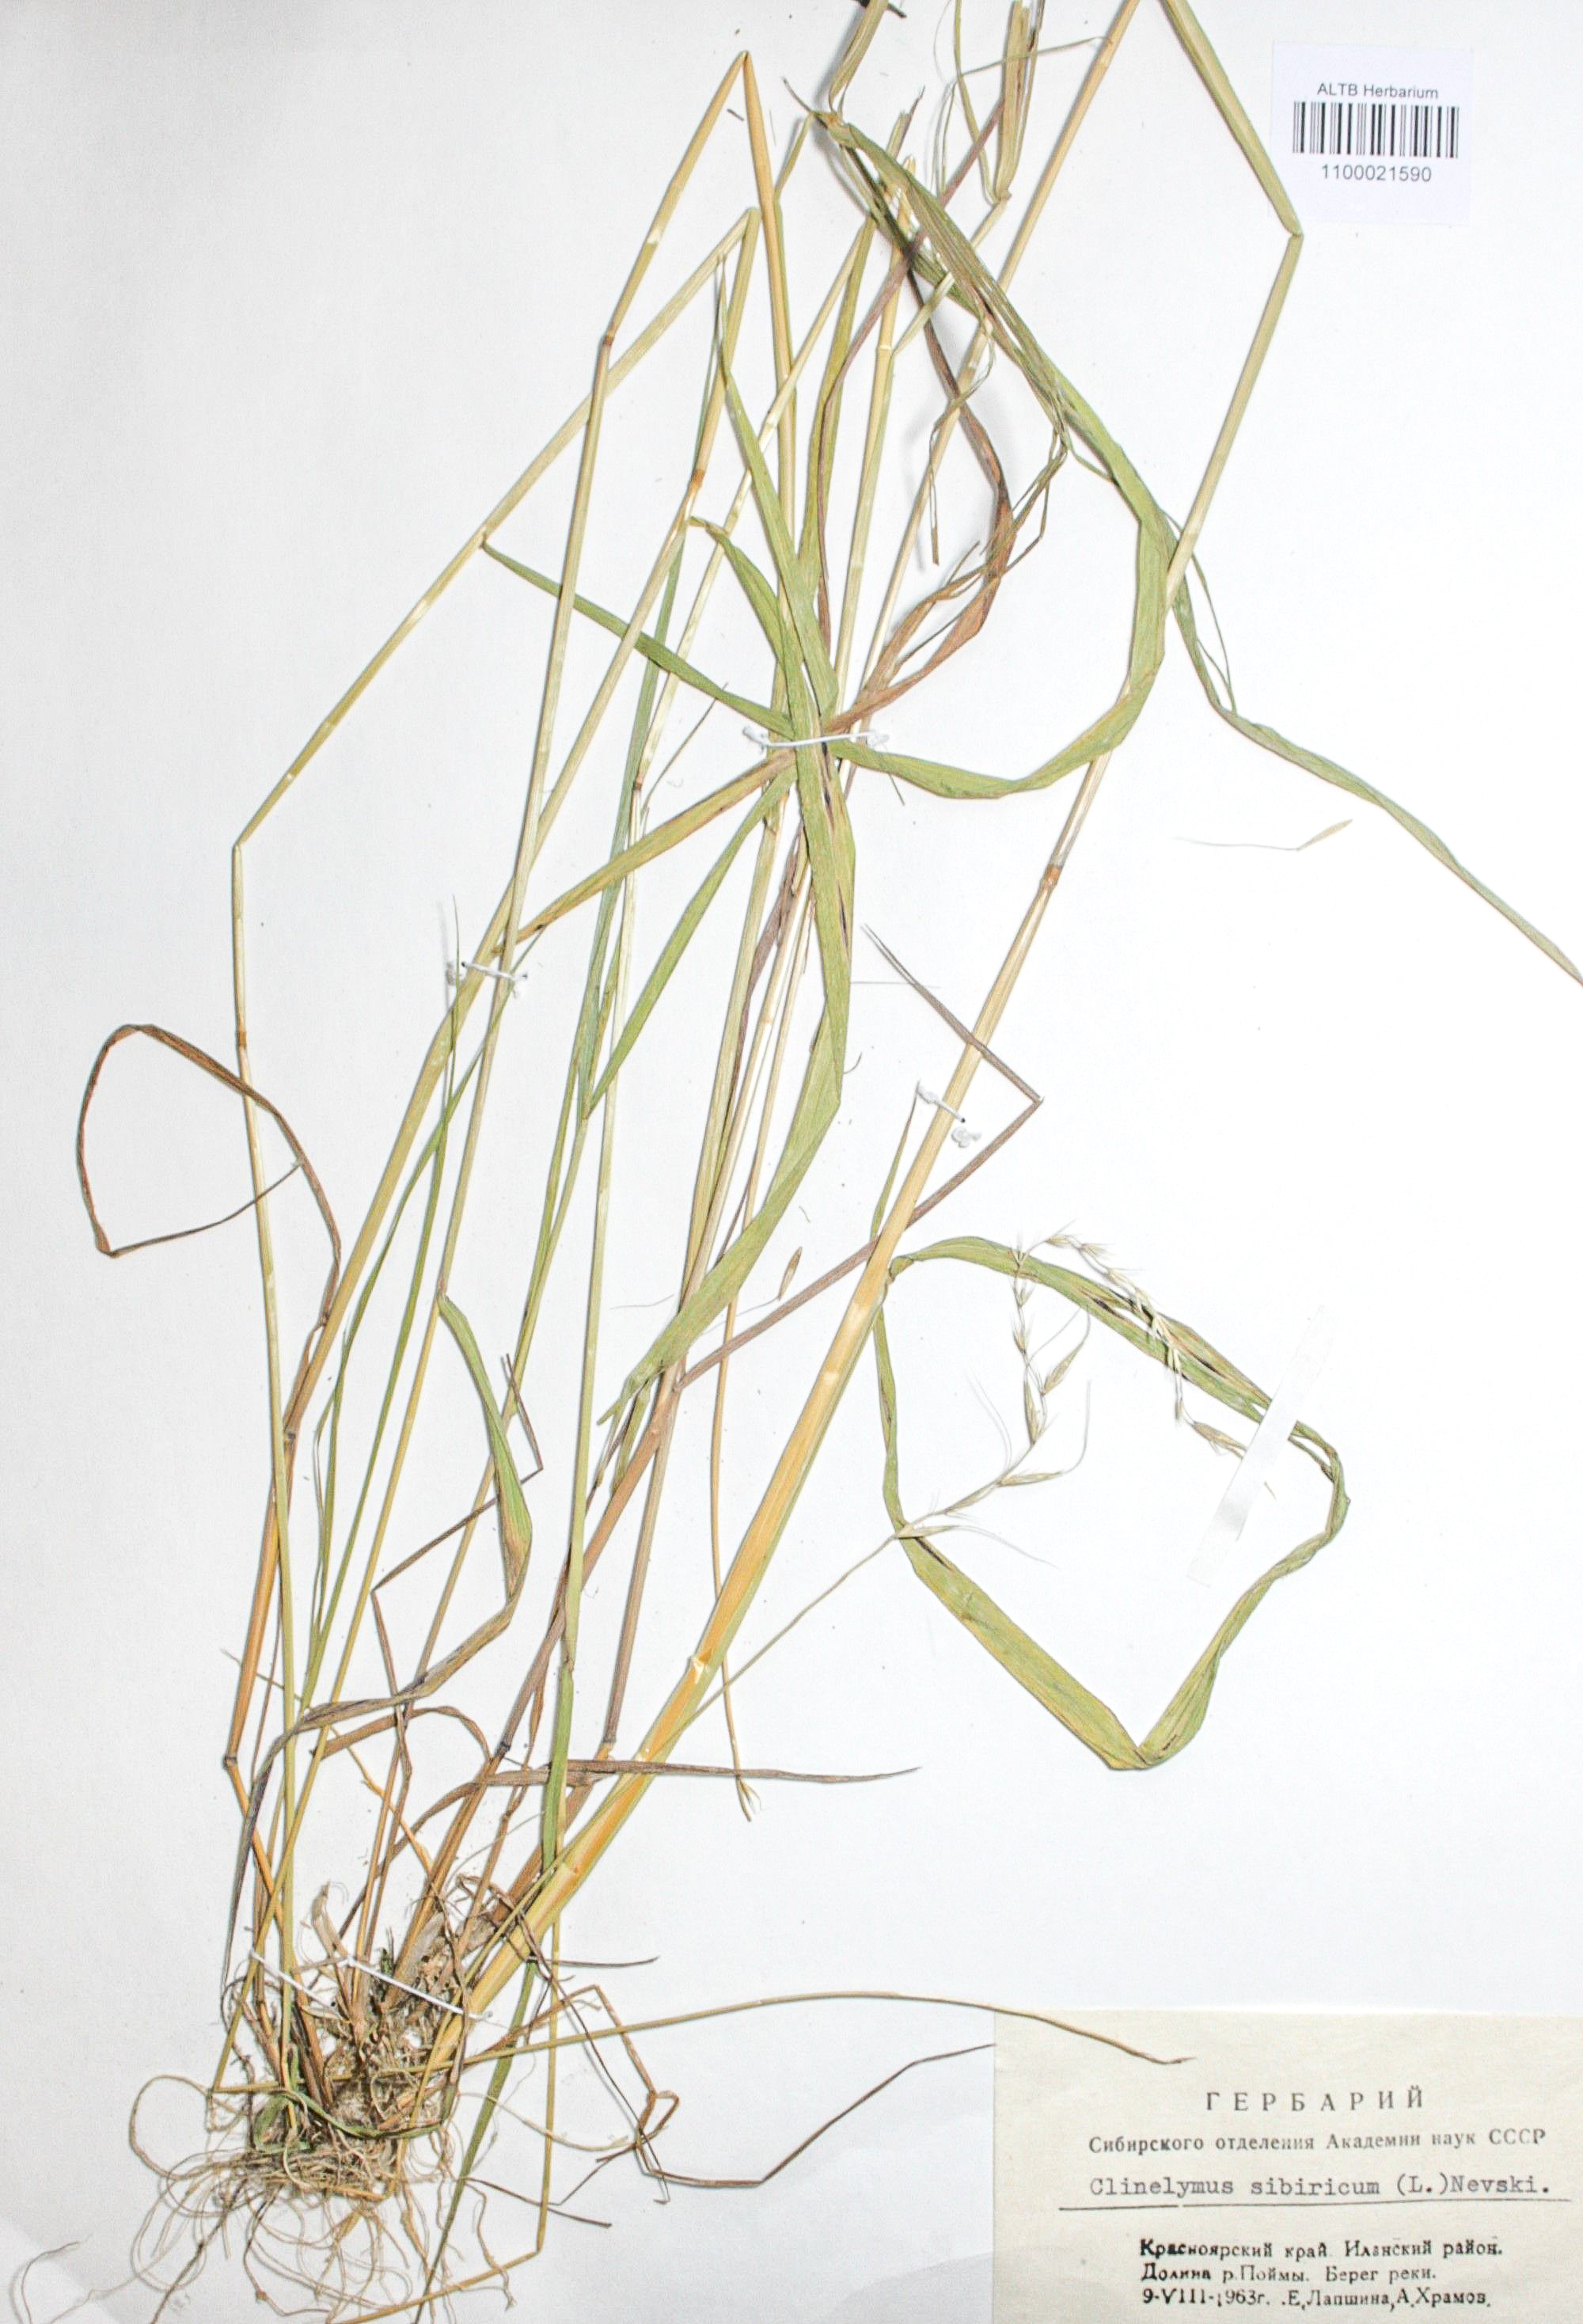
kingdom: Plantae
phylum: Tracheophyta
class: Liliopsida
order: Poales
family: Poaceae
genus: Elymus
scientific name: Elymus sibiricus
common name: Siberian wildrye
